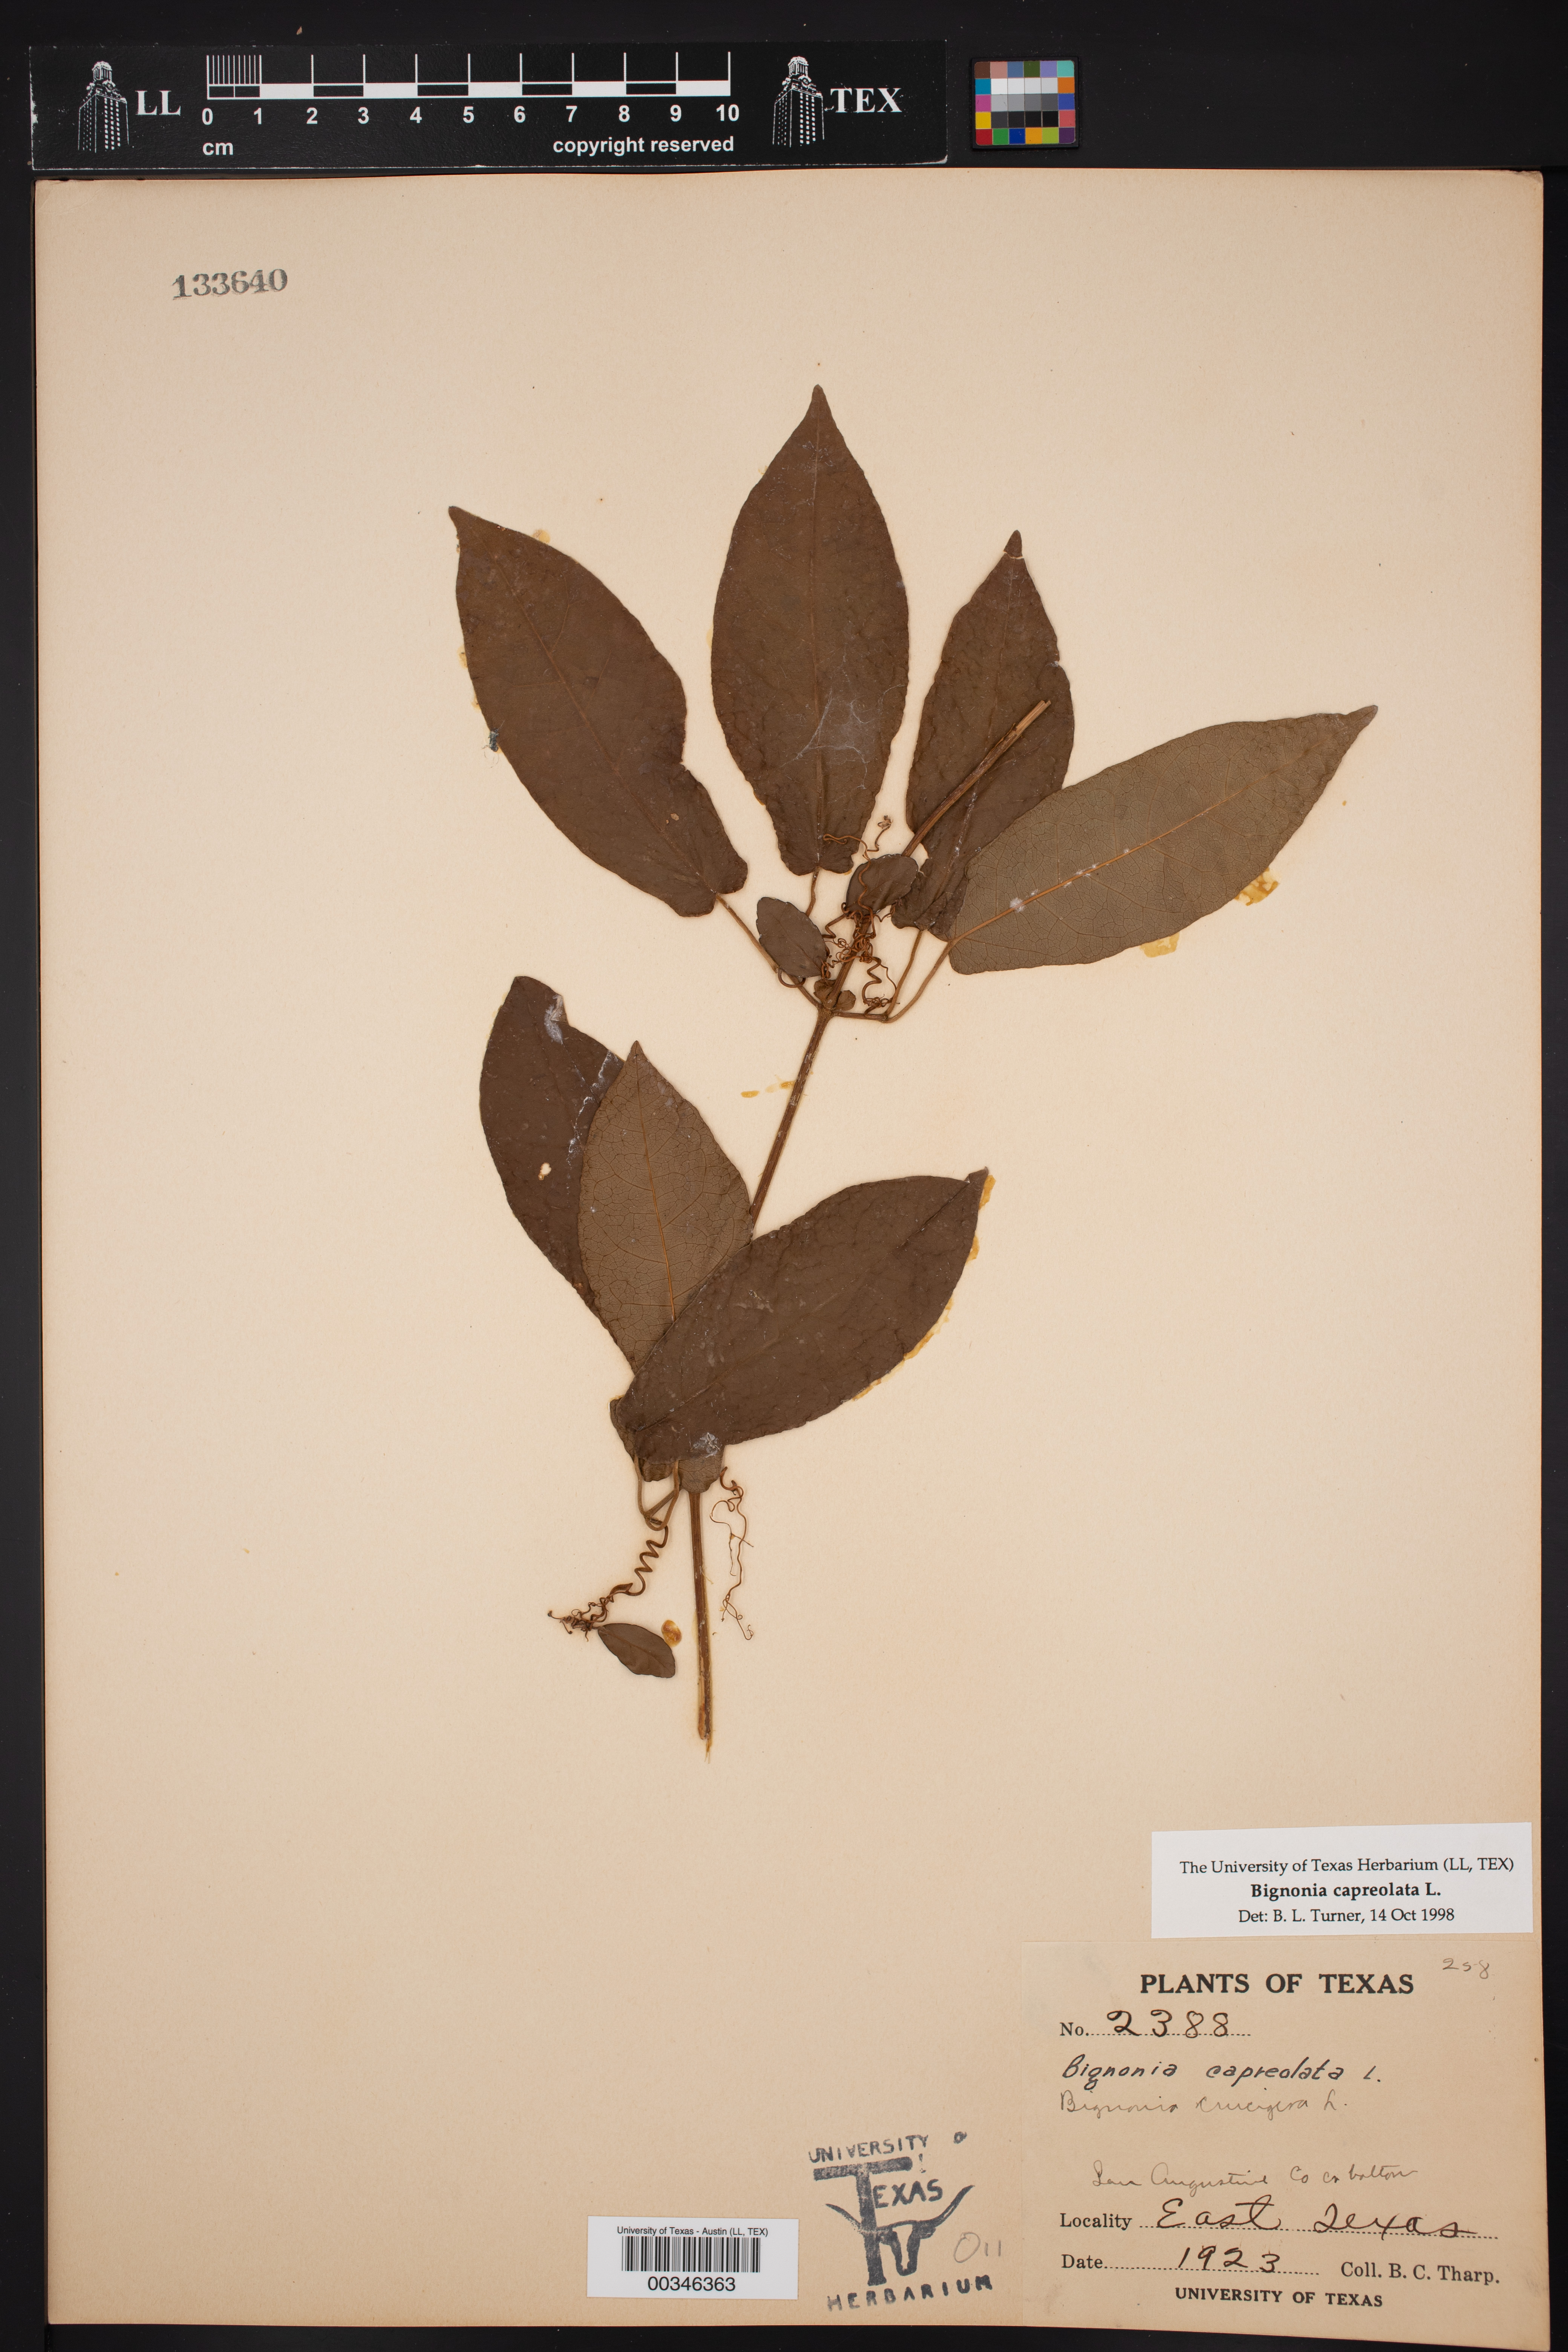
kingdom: Plantae
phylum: Tracheophyta
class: Magnoliopsida
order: Lamiales
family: Bignoniaceae
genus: Bignonia
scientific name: Bignonia capreolata
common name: Crossvine
